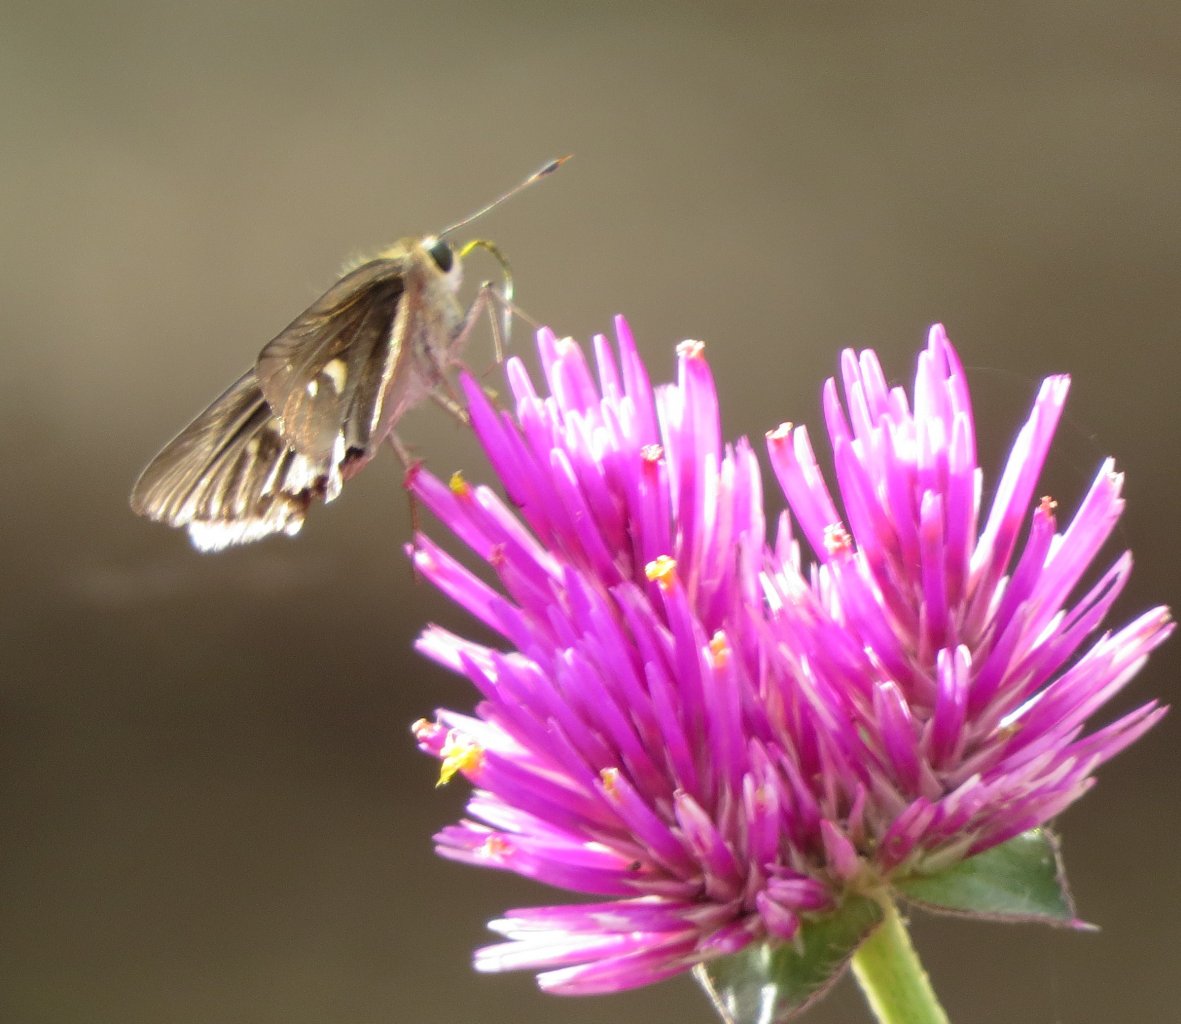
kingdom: Animalia
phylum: Arthropoda
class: Insecta
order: Lepidoptera
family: Hesperiidae
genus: Panoquina
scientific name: Panoquina ocola
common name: Ocola Skipper
